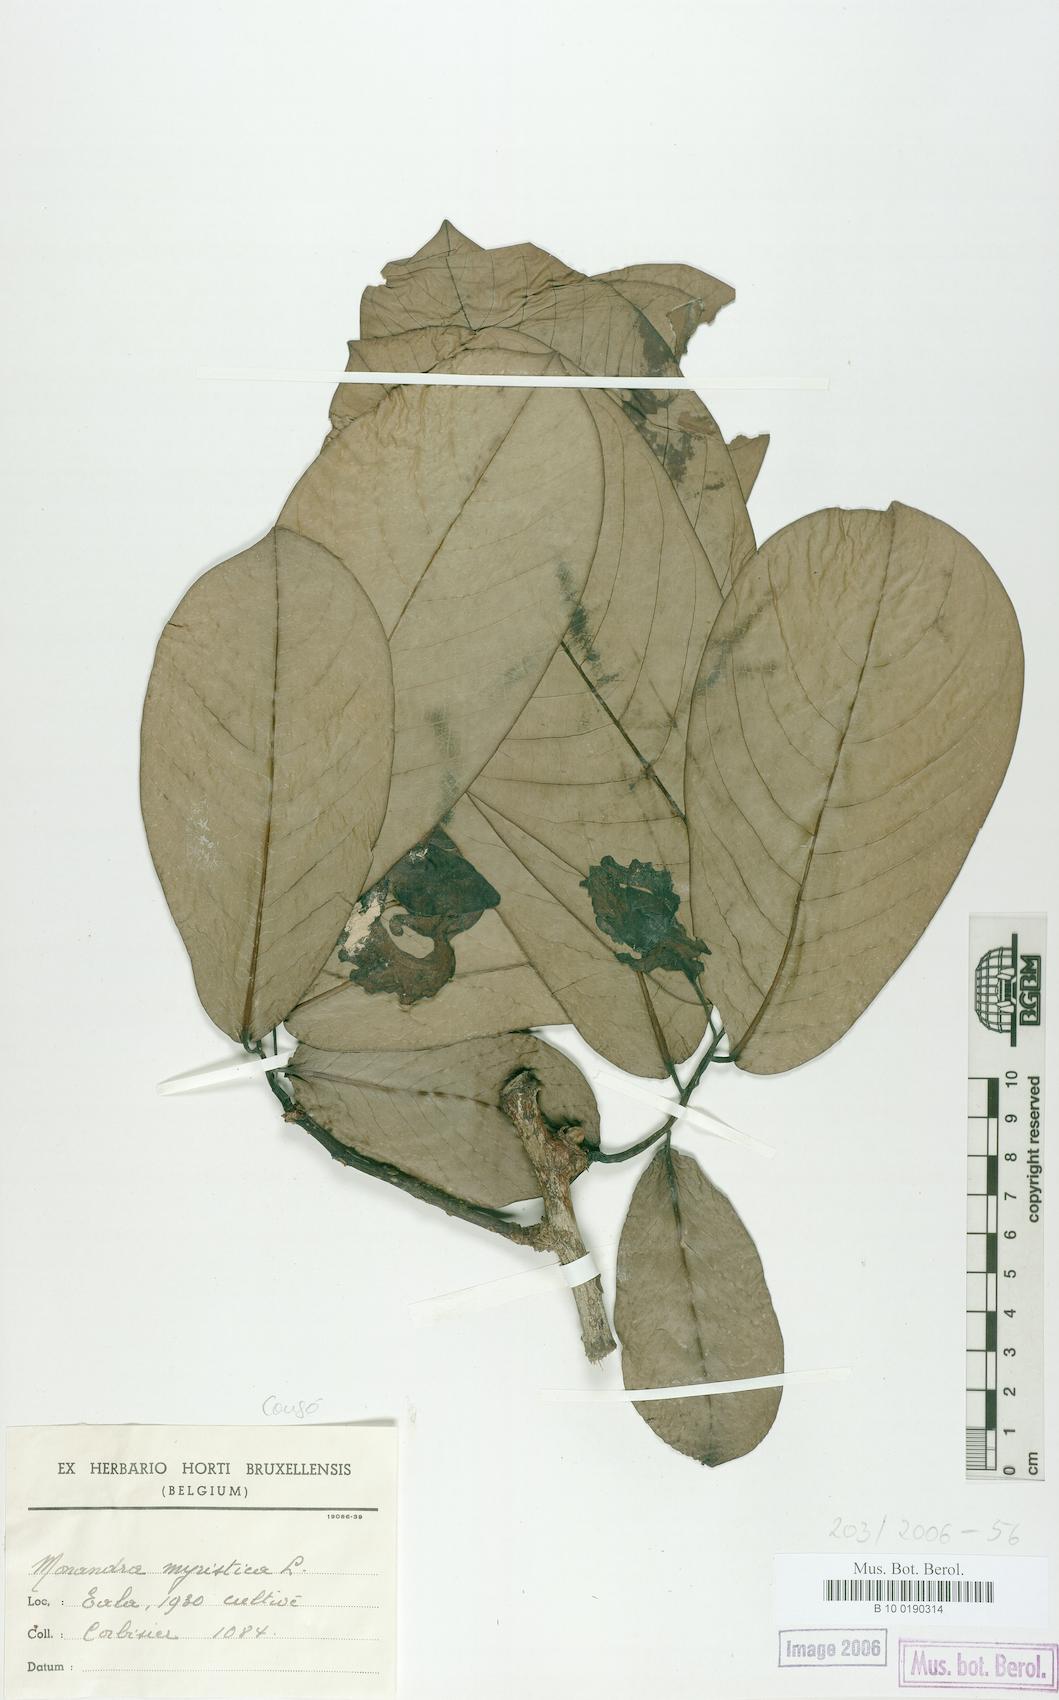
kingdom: Plantae
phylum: Tracheophyta
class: Magnoliopsida
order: Magnoliales
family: Annonaceae
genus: Monodora
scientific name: Monodora myristica
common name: African nutmeg
